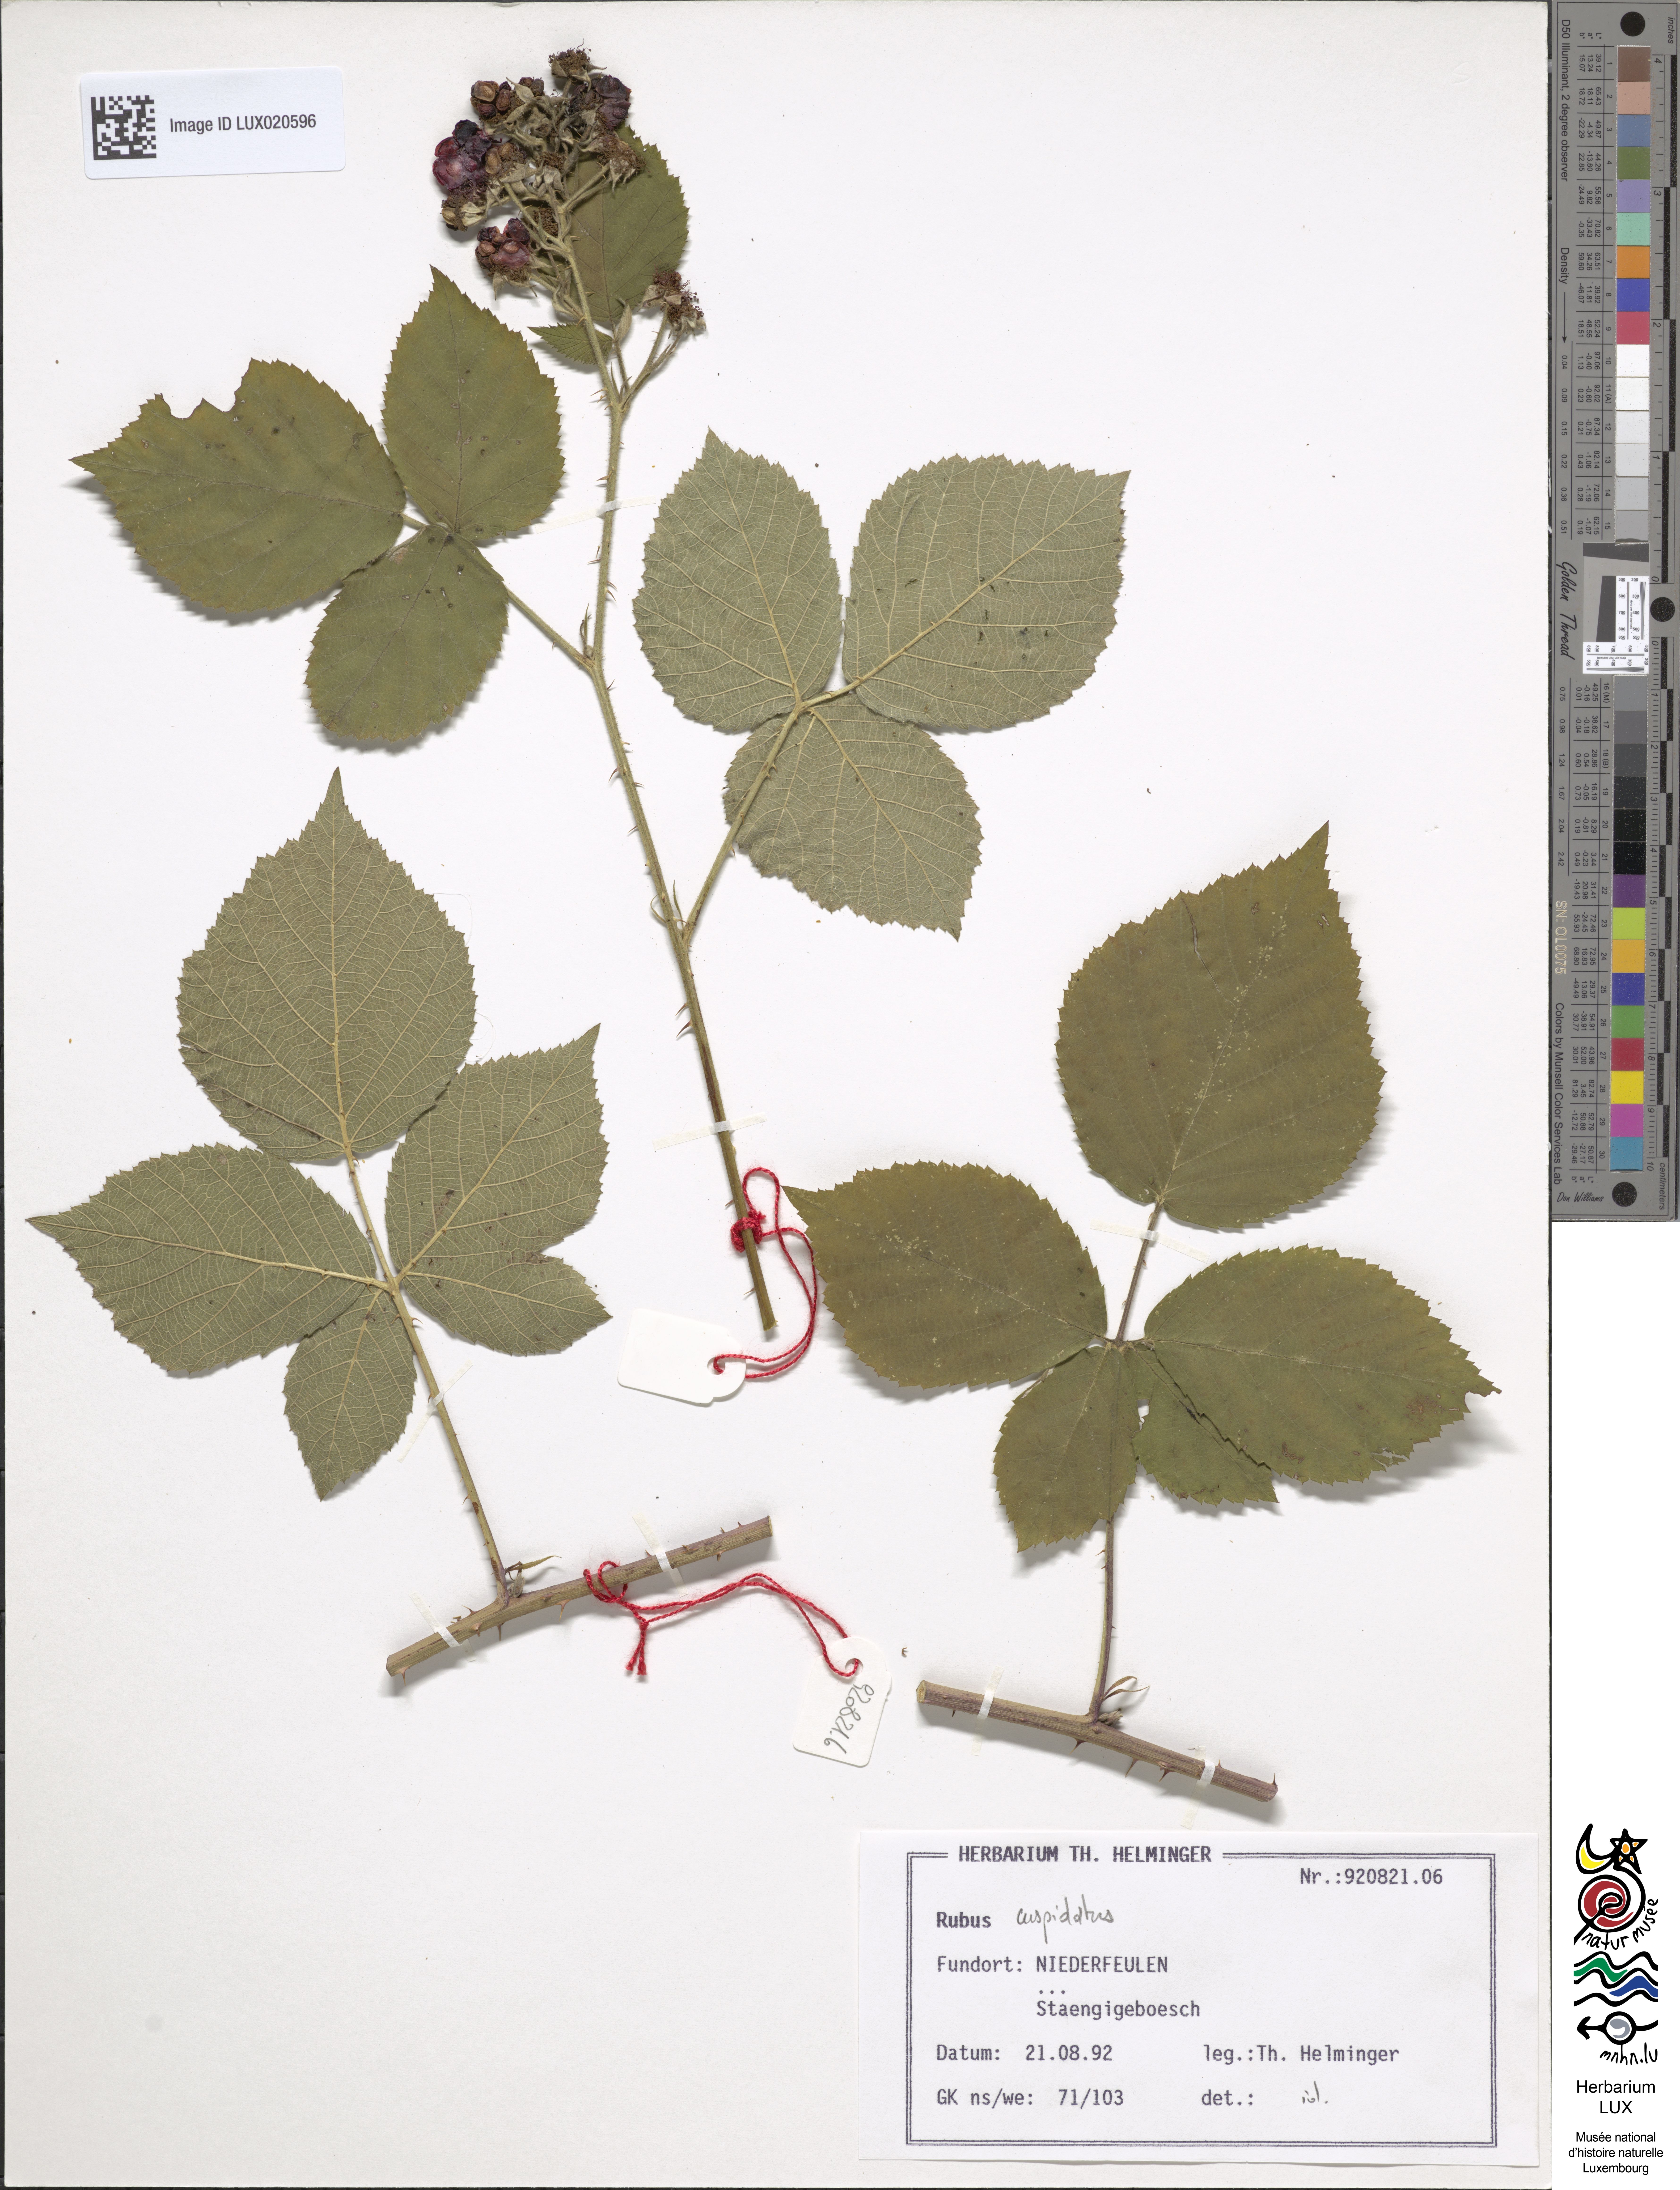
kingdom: Plantae
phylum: Tracheophyta
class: Magnoliopsida
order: Rosales
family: Rosaceae
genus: Rubus
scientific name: Rubus cuspidatus
